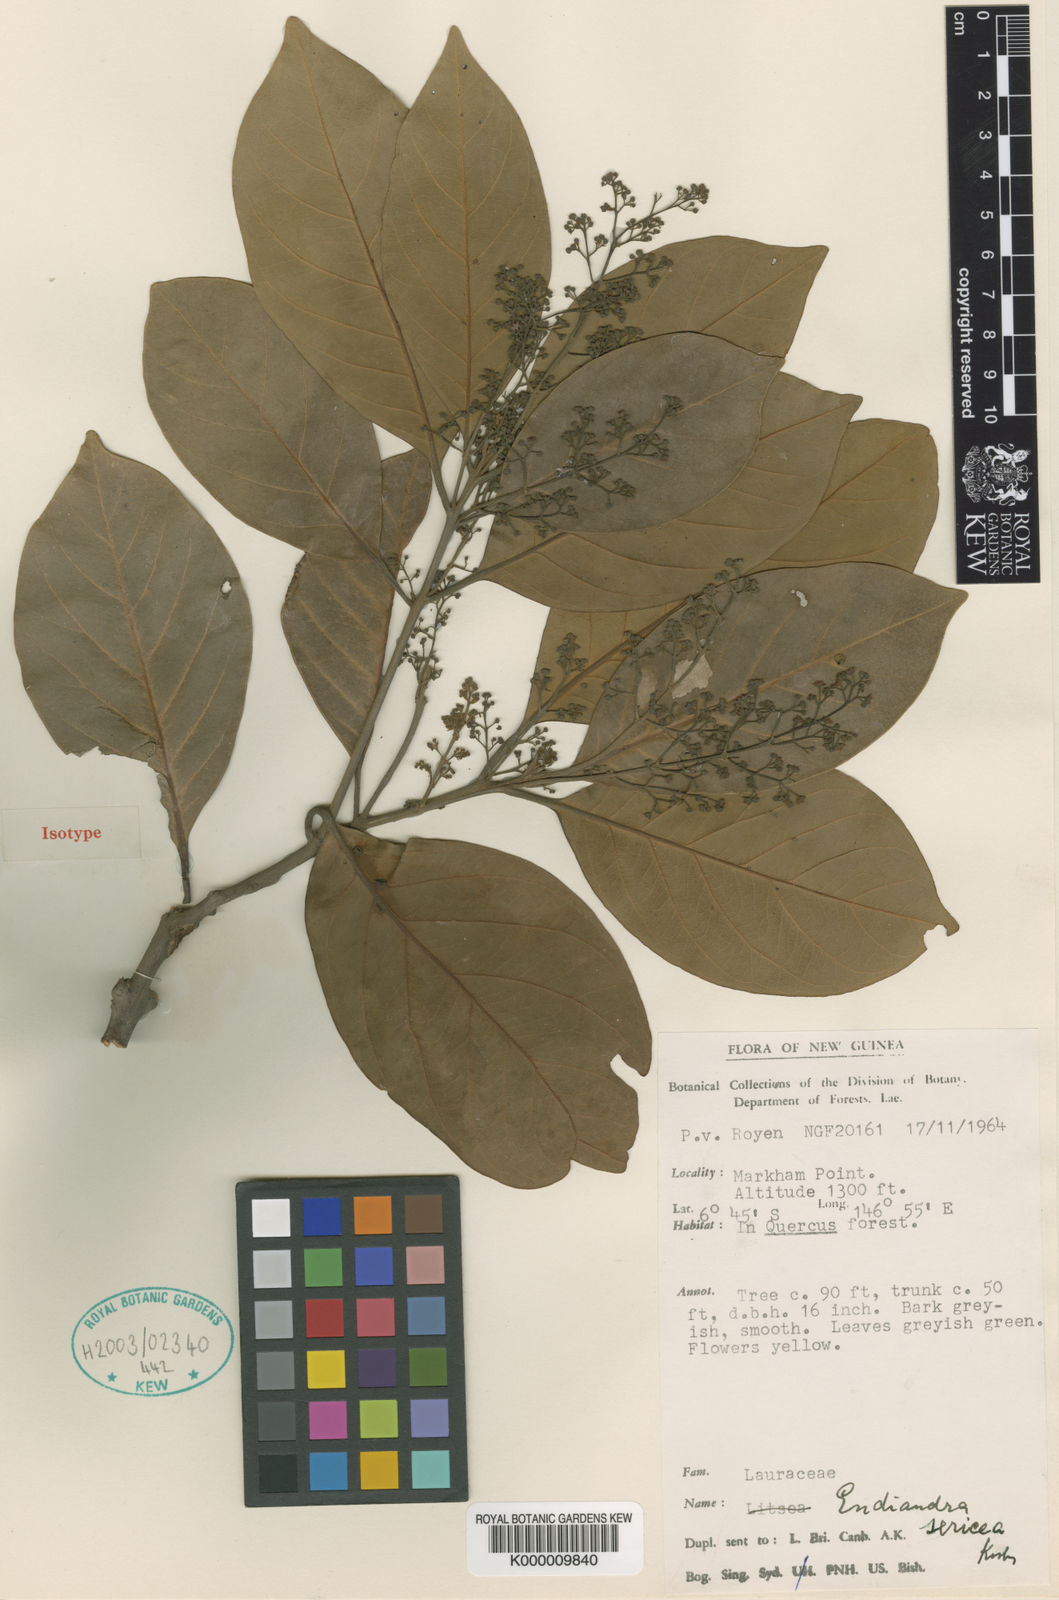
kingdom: Plantae
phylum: Tracheophyta
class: Magnoliopsida
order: Laurales
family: Lauraceae
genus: Endiandra
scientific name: Endiandra sericea
